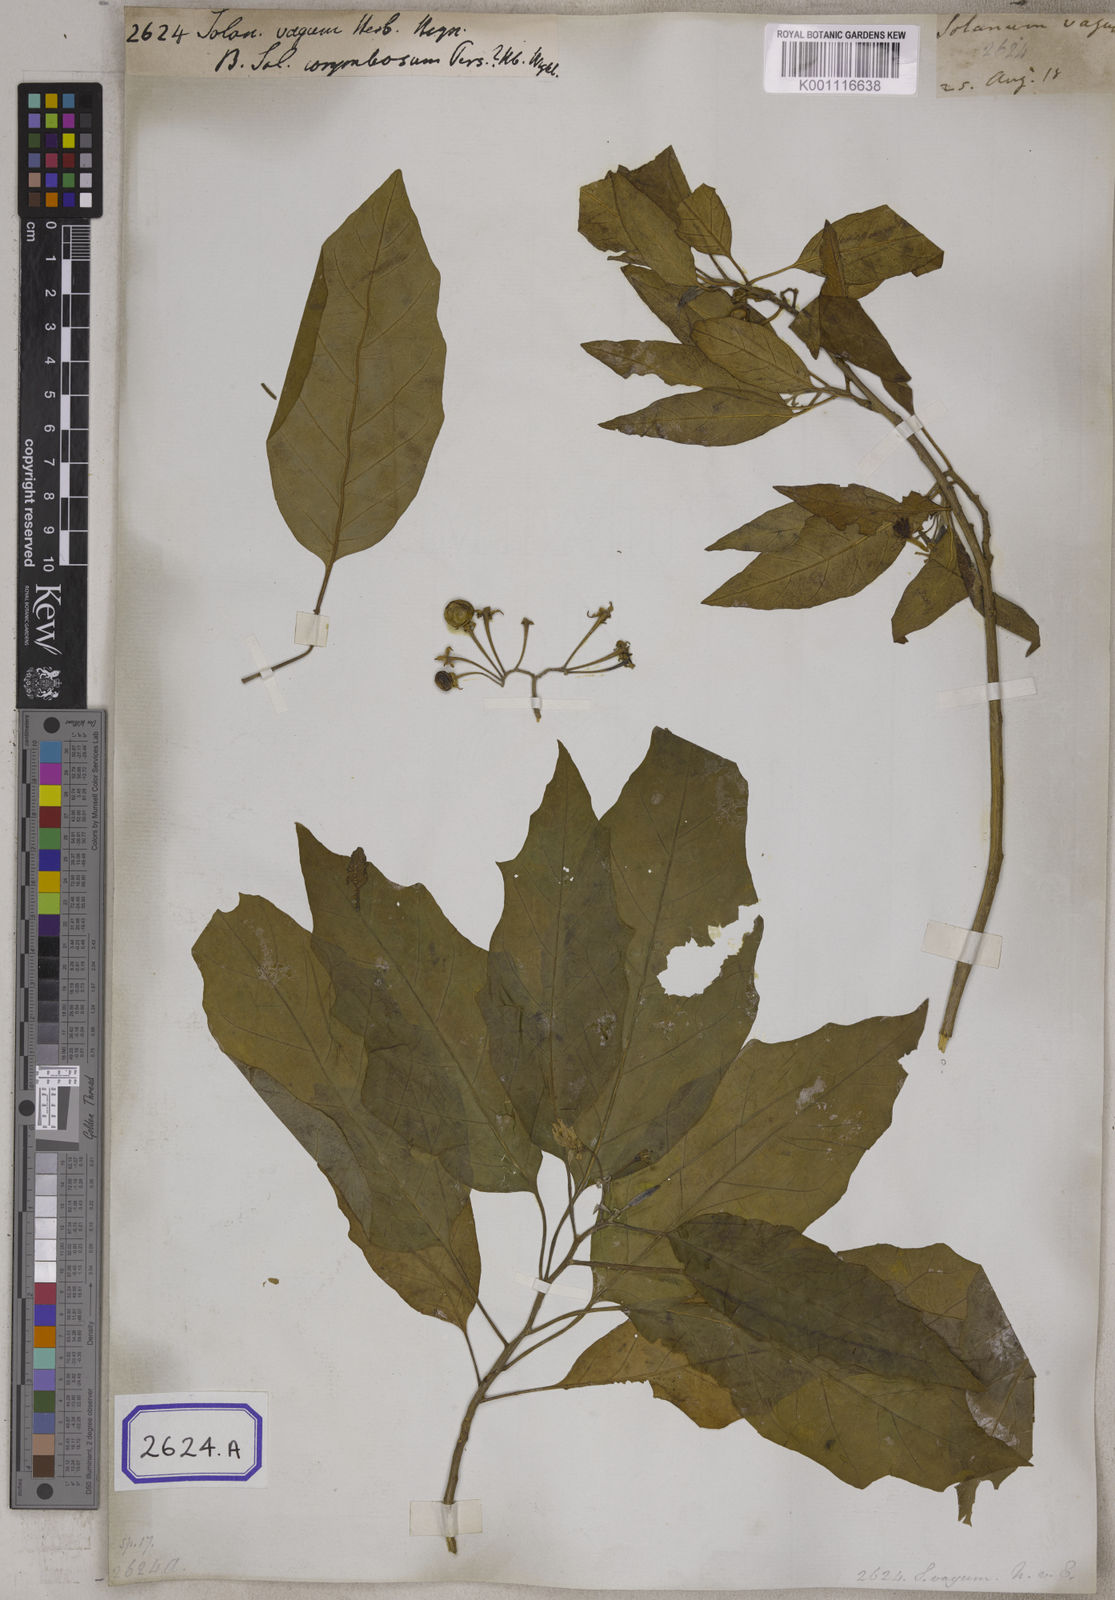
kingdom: Plantae
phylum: Tracheophyta
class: Magnoliopsida
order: Solanales
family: Solanaceae
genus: Solanum
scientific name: Solanum giganteum
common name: Healing-leaf-tree
